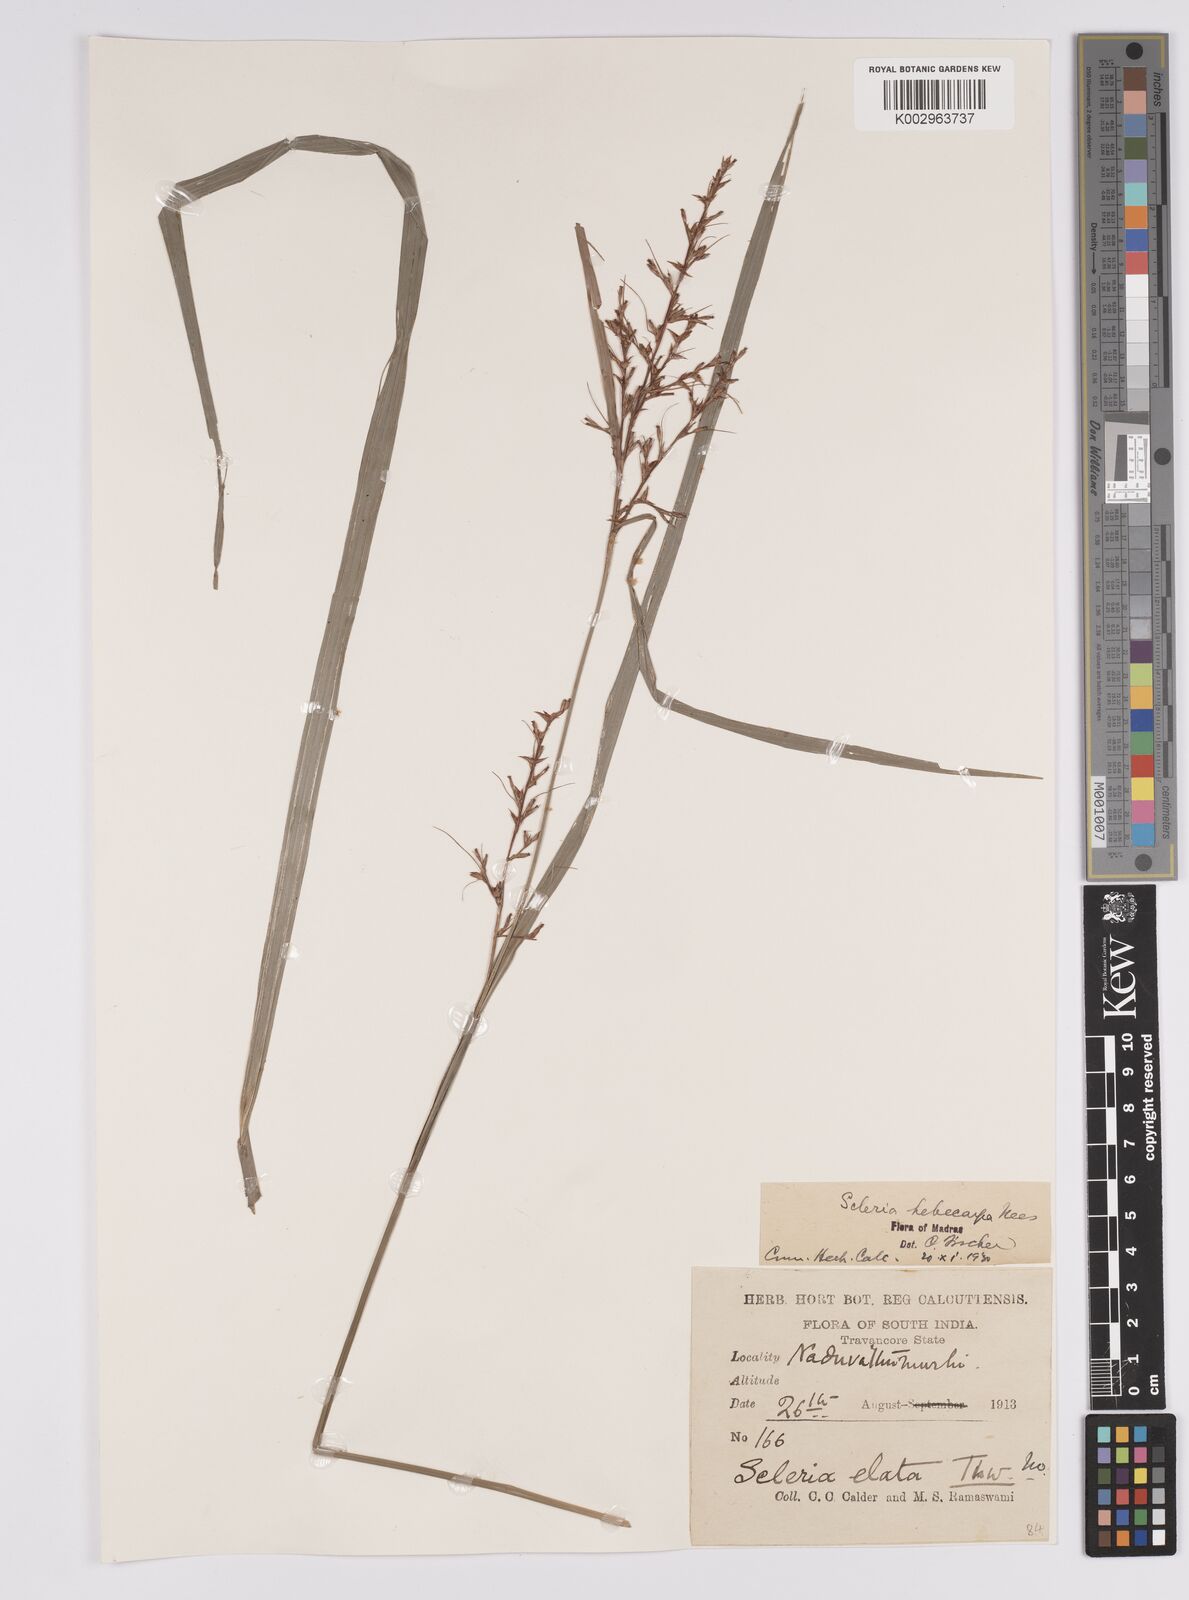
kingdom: Plantae
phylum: Tracheophyta
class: Liliopsida
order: Poales
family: Cyperaceae
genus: Scleria
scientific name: Scleria levis
